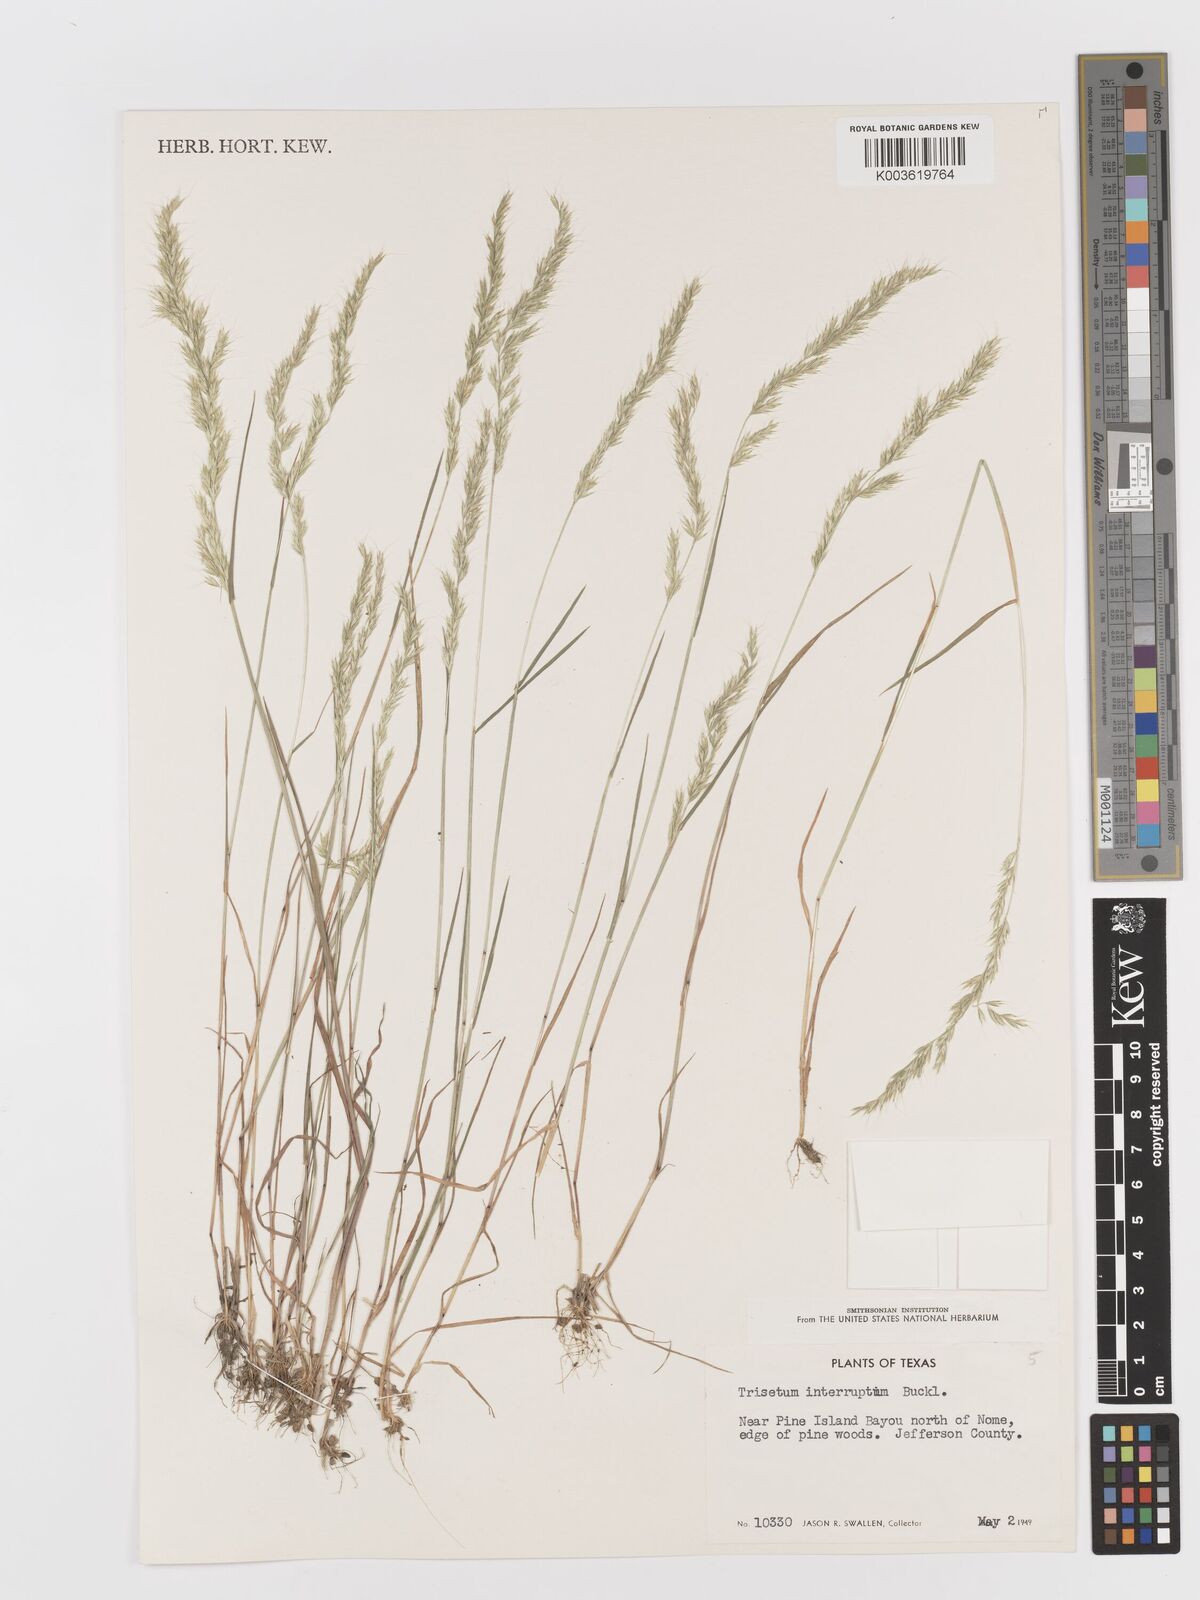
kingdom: Plantae
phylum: Tracheophyta
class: Liliopsida
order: Poales
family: Poaceae
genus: Sphenopholis
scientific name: Sphenopholis interrupta
